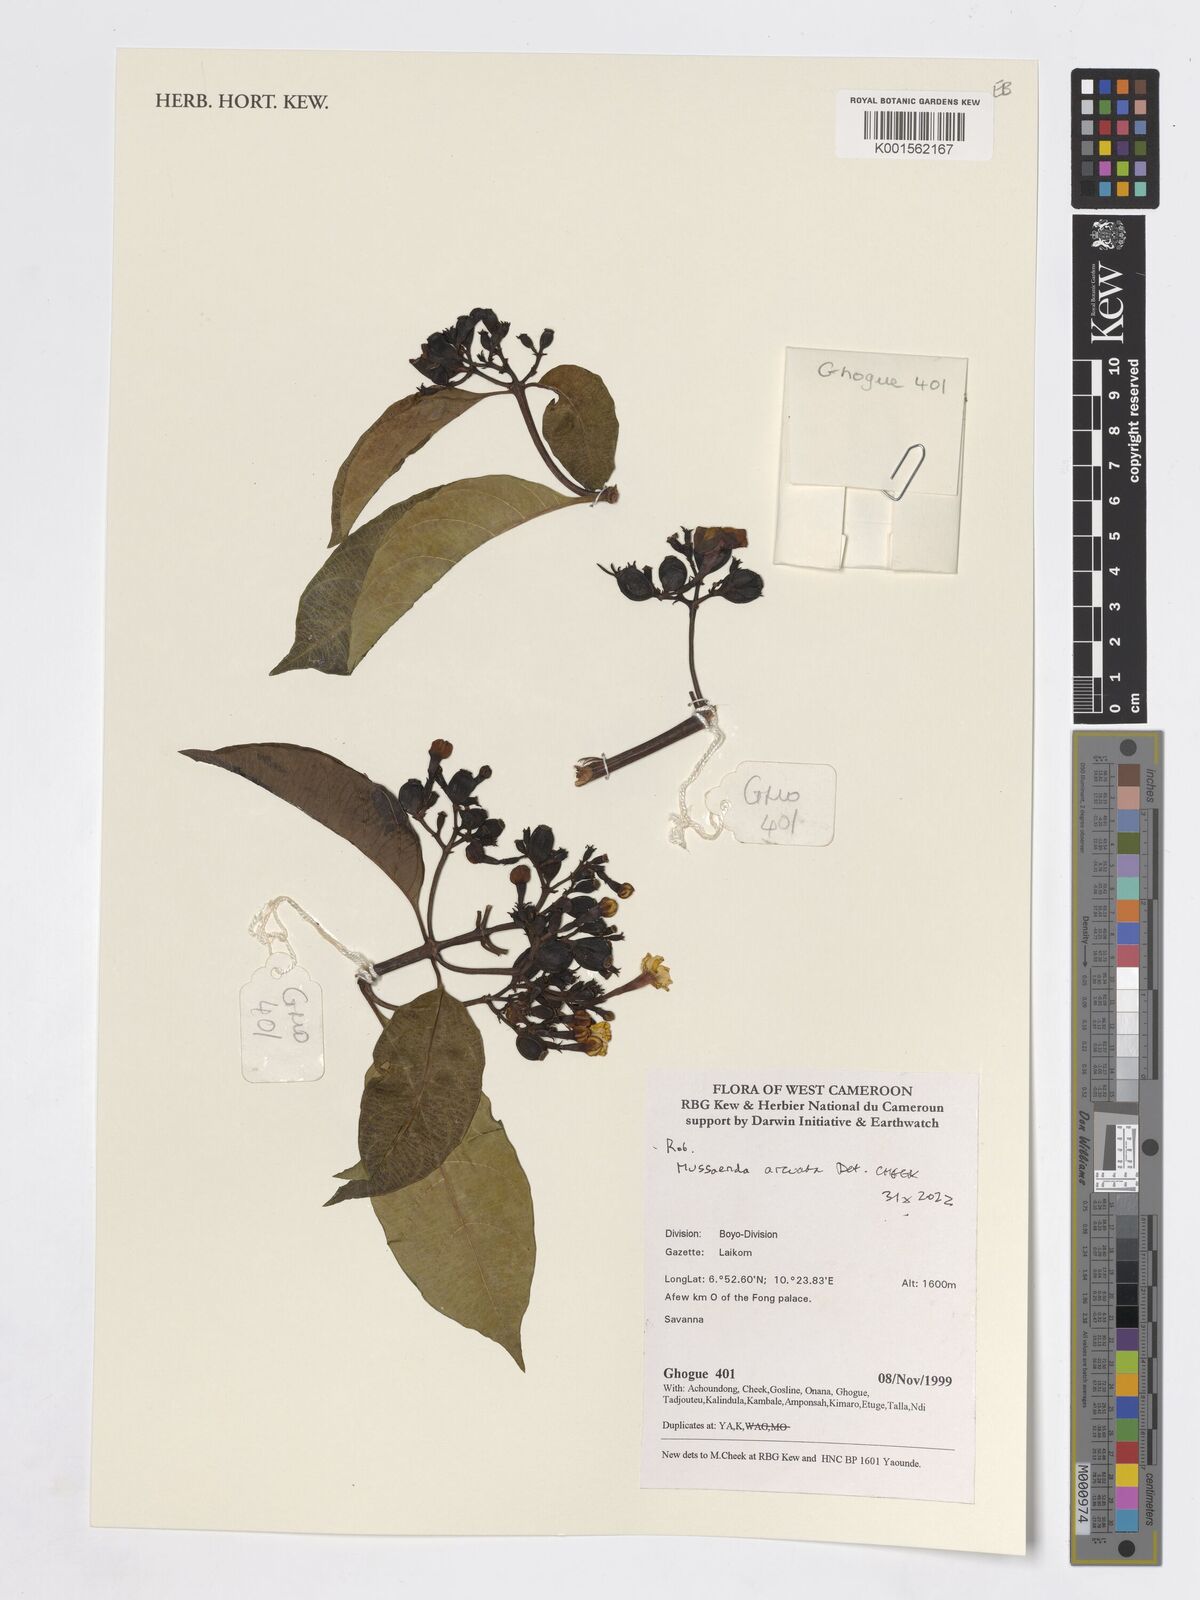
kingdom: Plantae
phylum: Tracheophyta
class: Magnoliopsida
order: Gentianales
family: Rubiaceae
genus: Mussaenda
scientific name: Mussaenda arcuata
